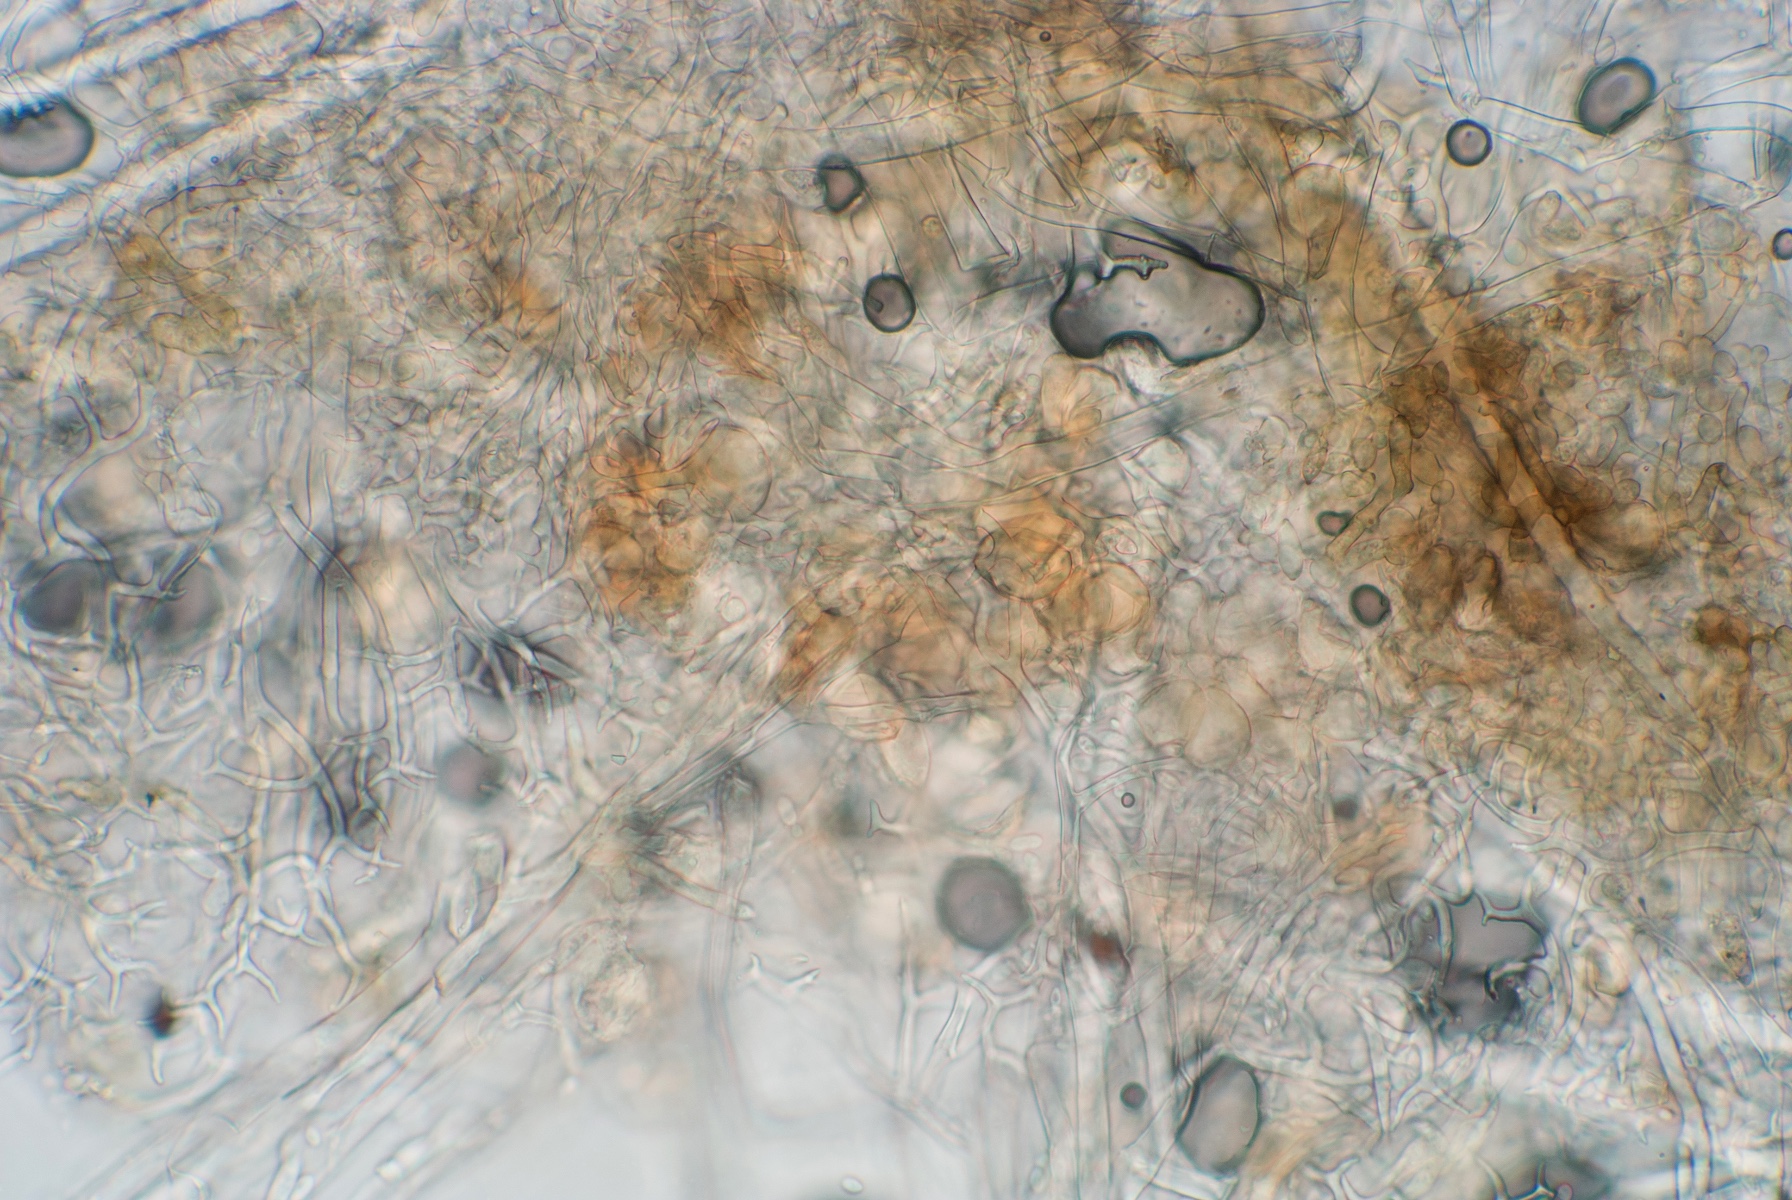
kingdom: Chromista
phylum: Oomycota
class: Peronosporea
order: Peronosporales
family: Peronosporaceae
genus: Peronospora
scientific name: Peronospora romanica
